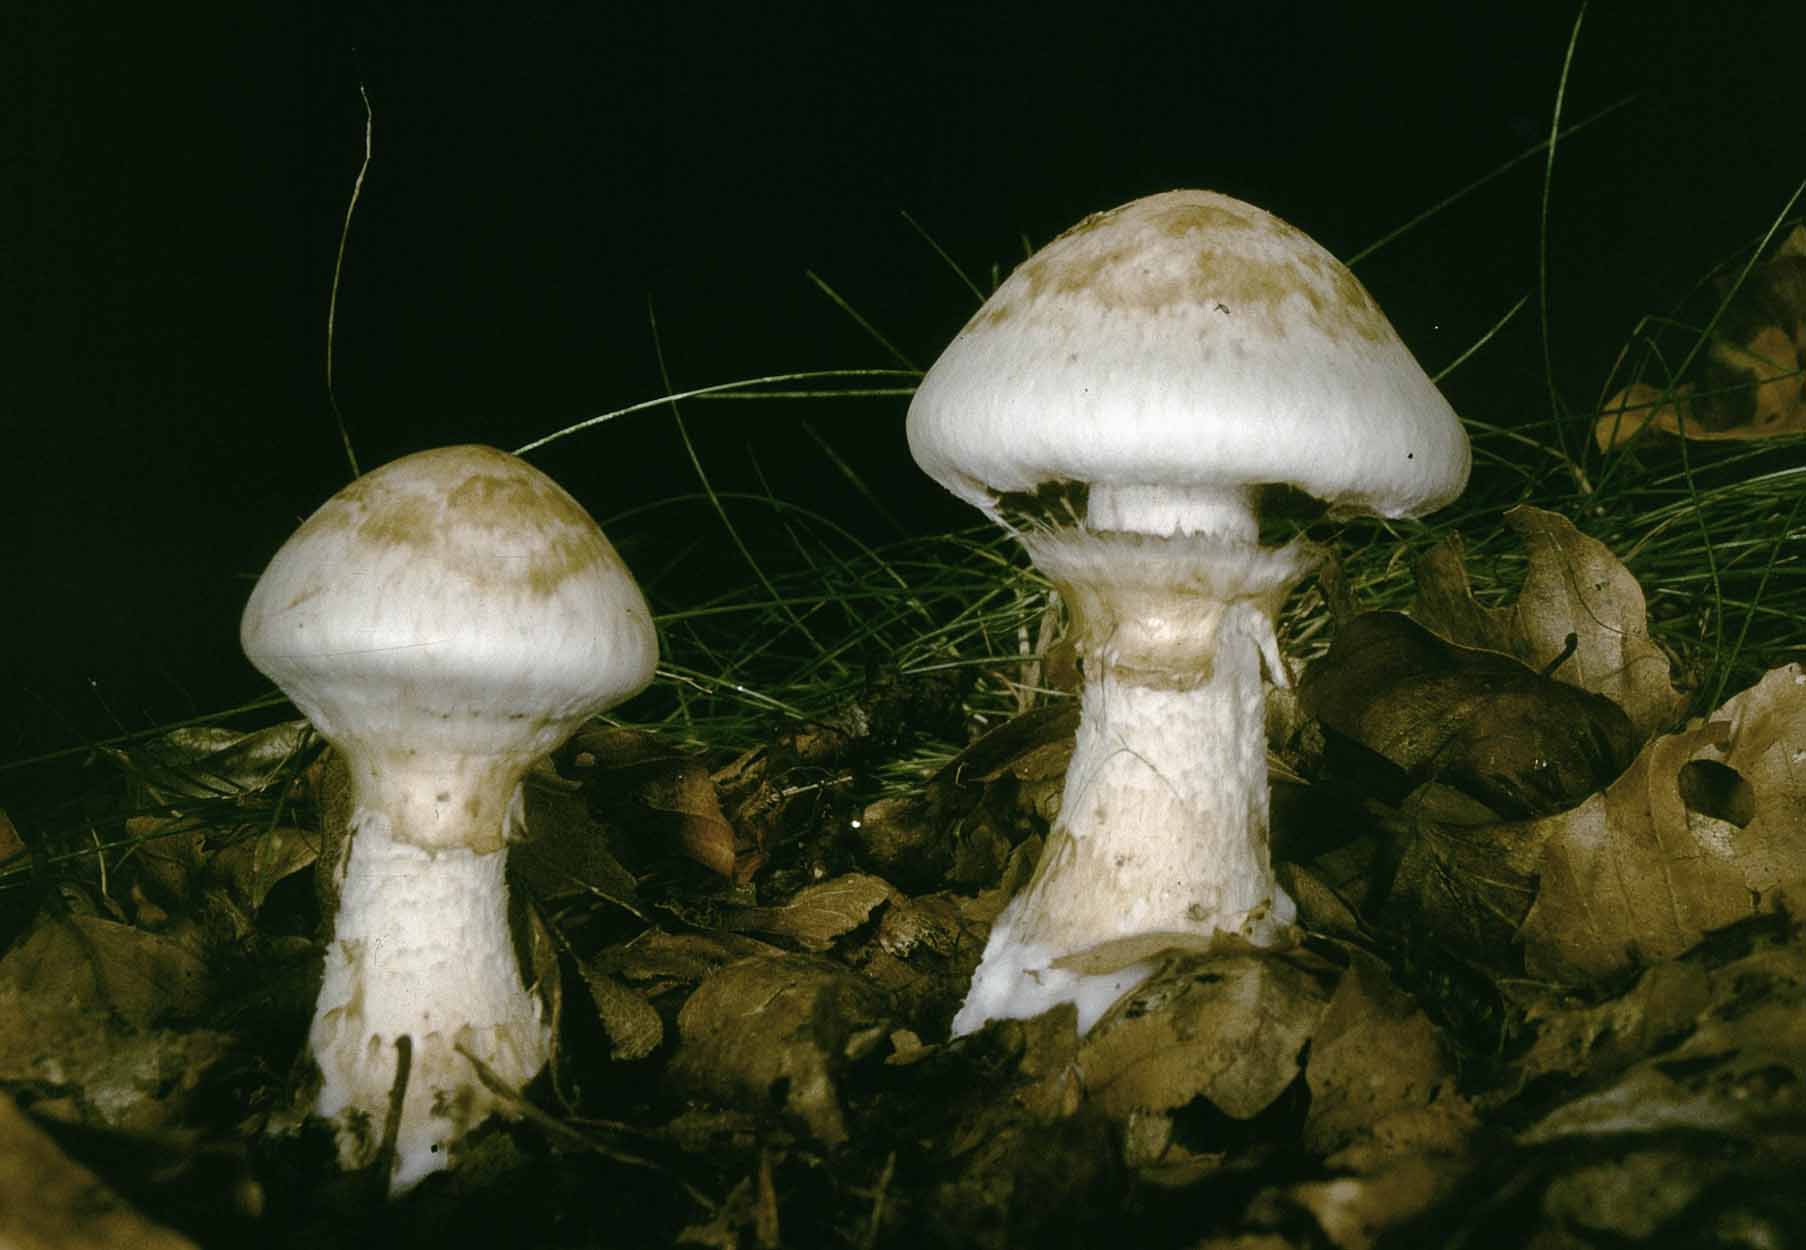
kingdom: Fungi
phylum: Basidiomycota
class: Agaricomycetes
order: Agaricales
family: Hymenogastraceae
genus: Hebeloma
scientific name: Hebeloma radicosum
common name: pælerods-tåreblad
